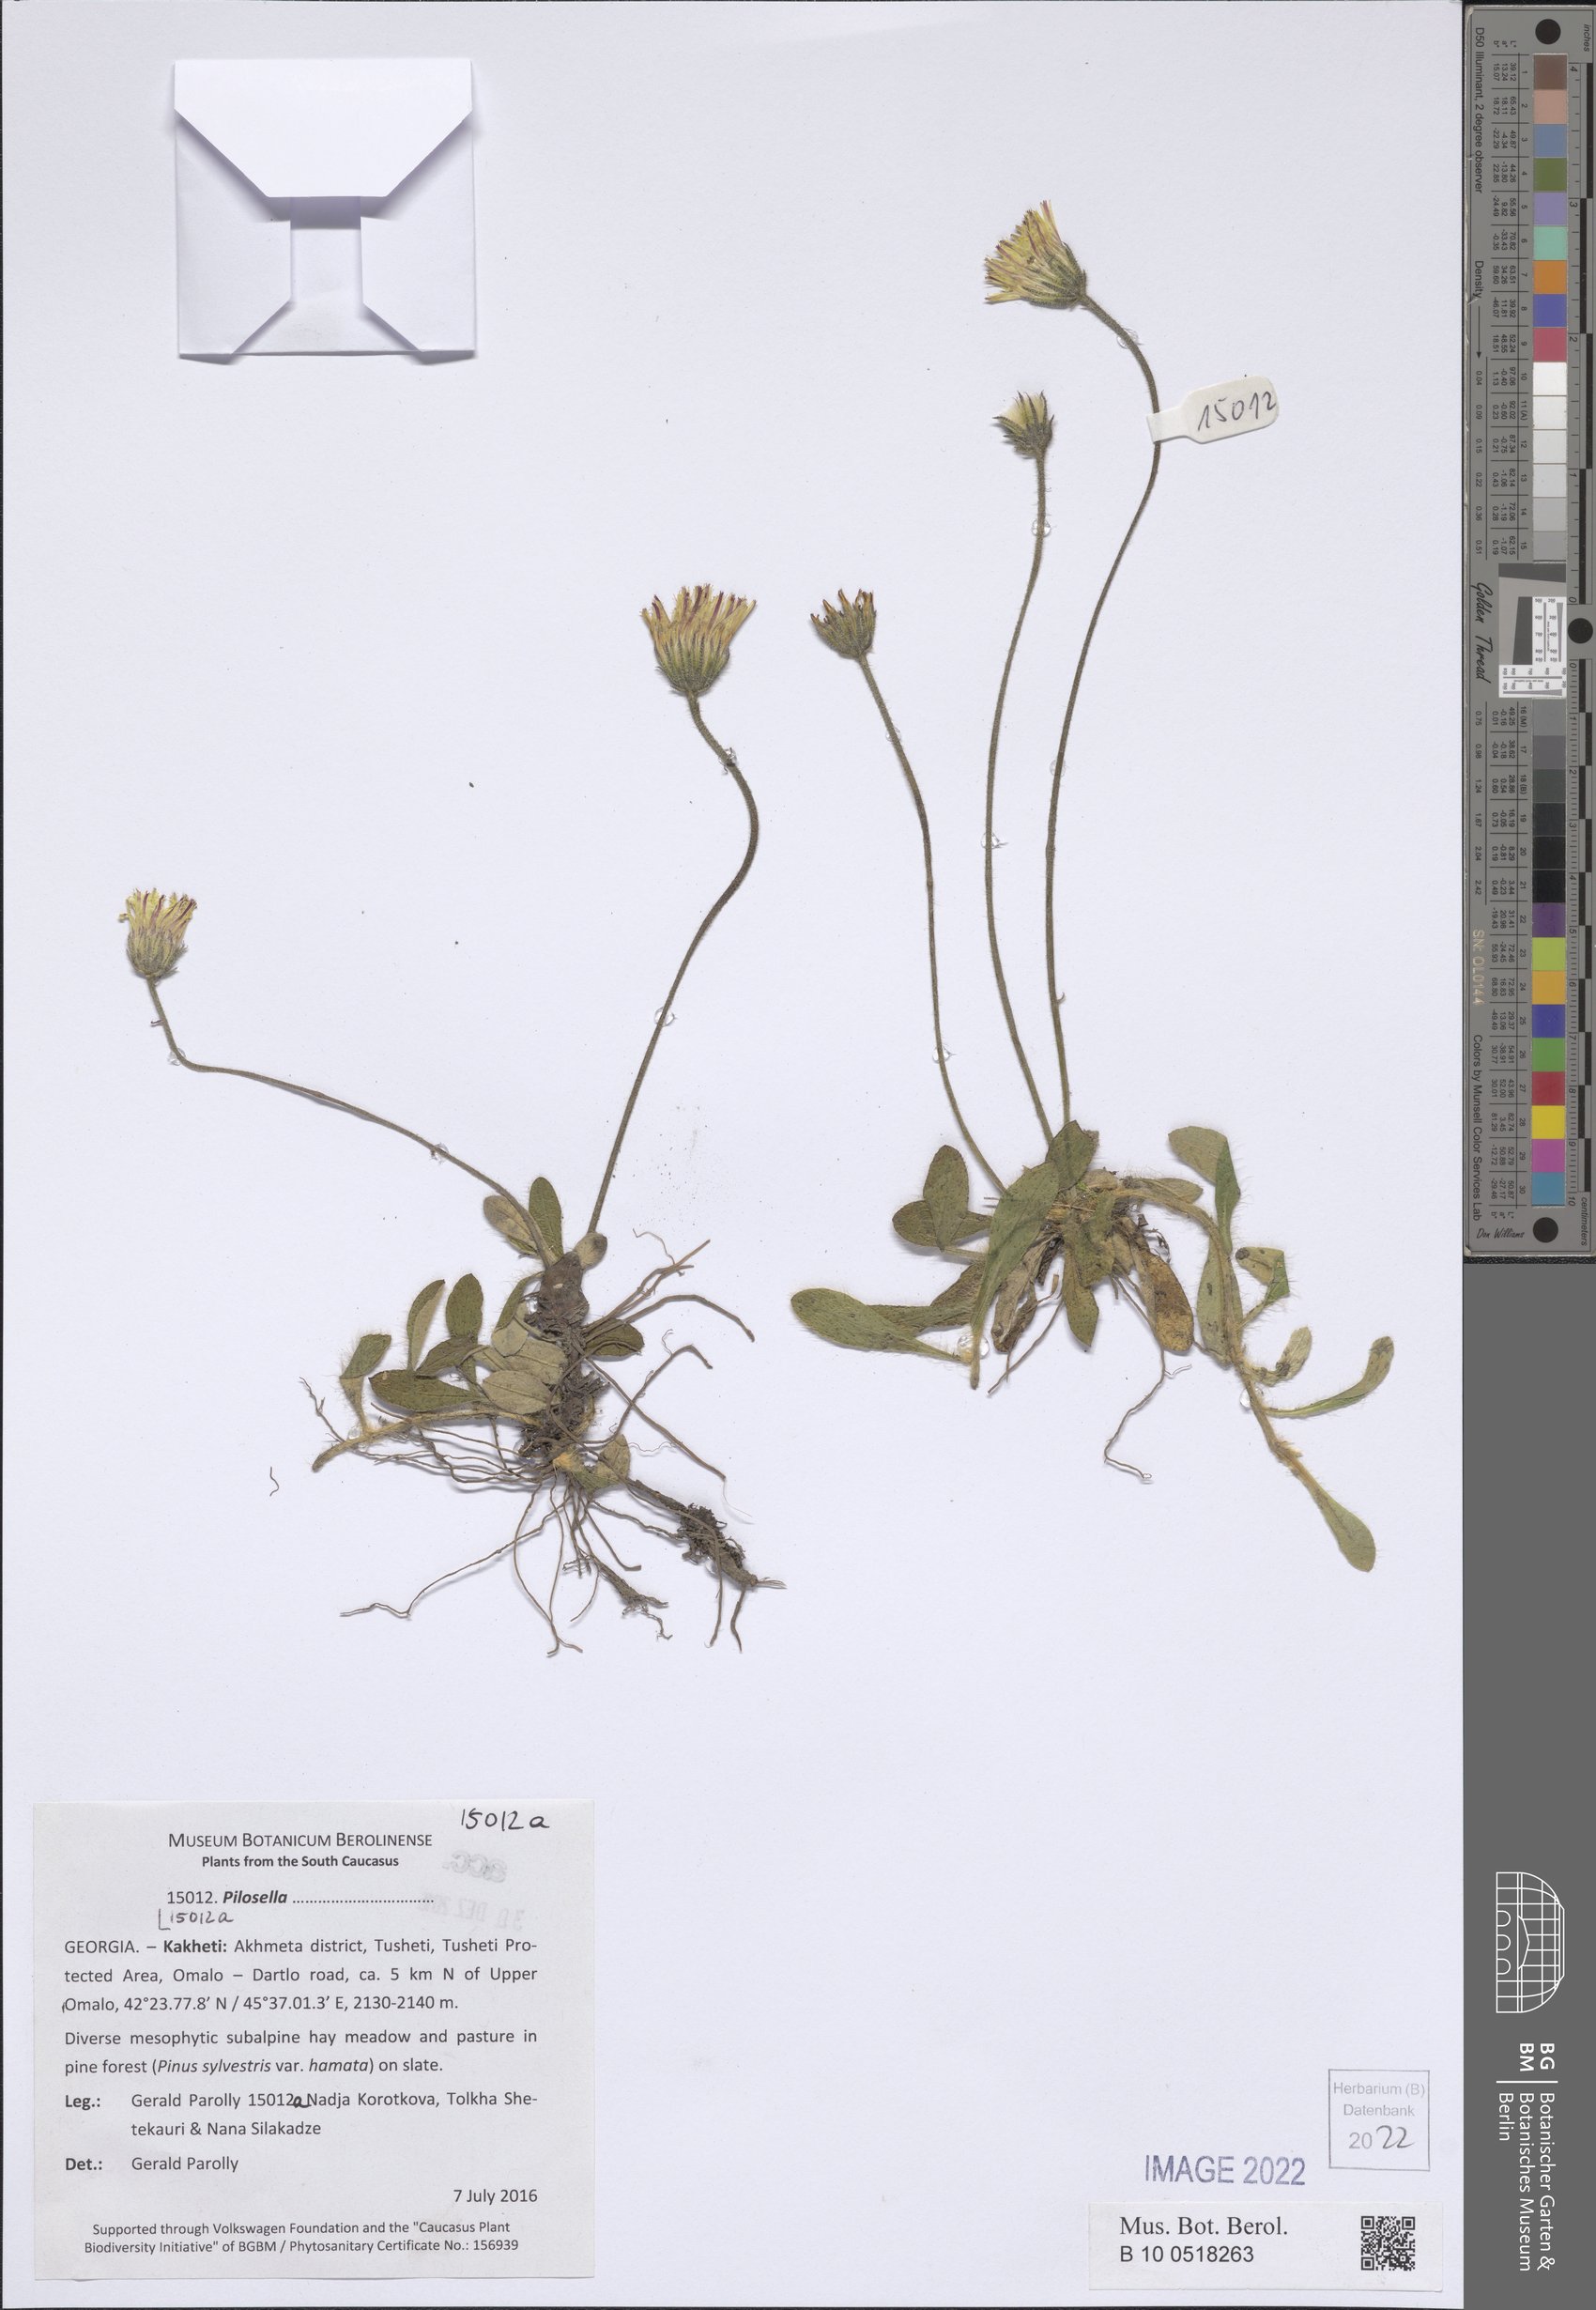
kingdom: Plantae
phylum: Tracheophyta
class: Magnoliopsida
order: Asterales
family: Asteraceae
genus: Pilosella
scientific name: Pilosella
